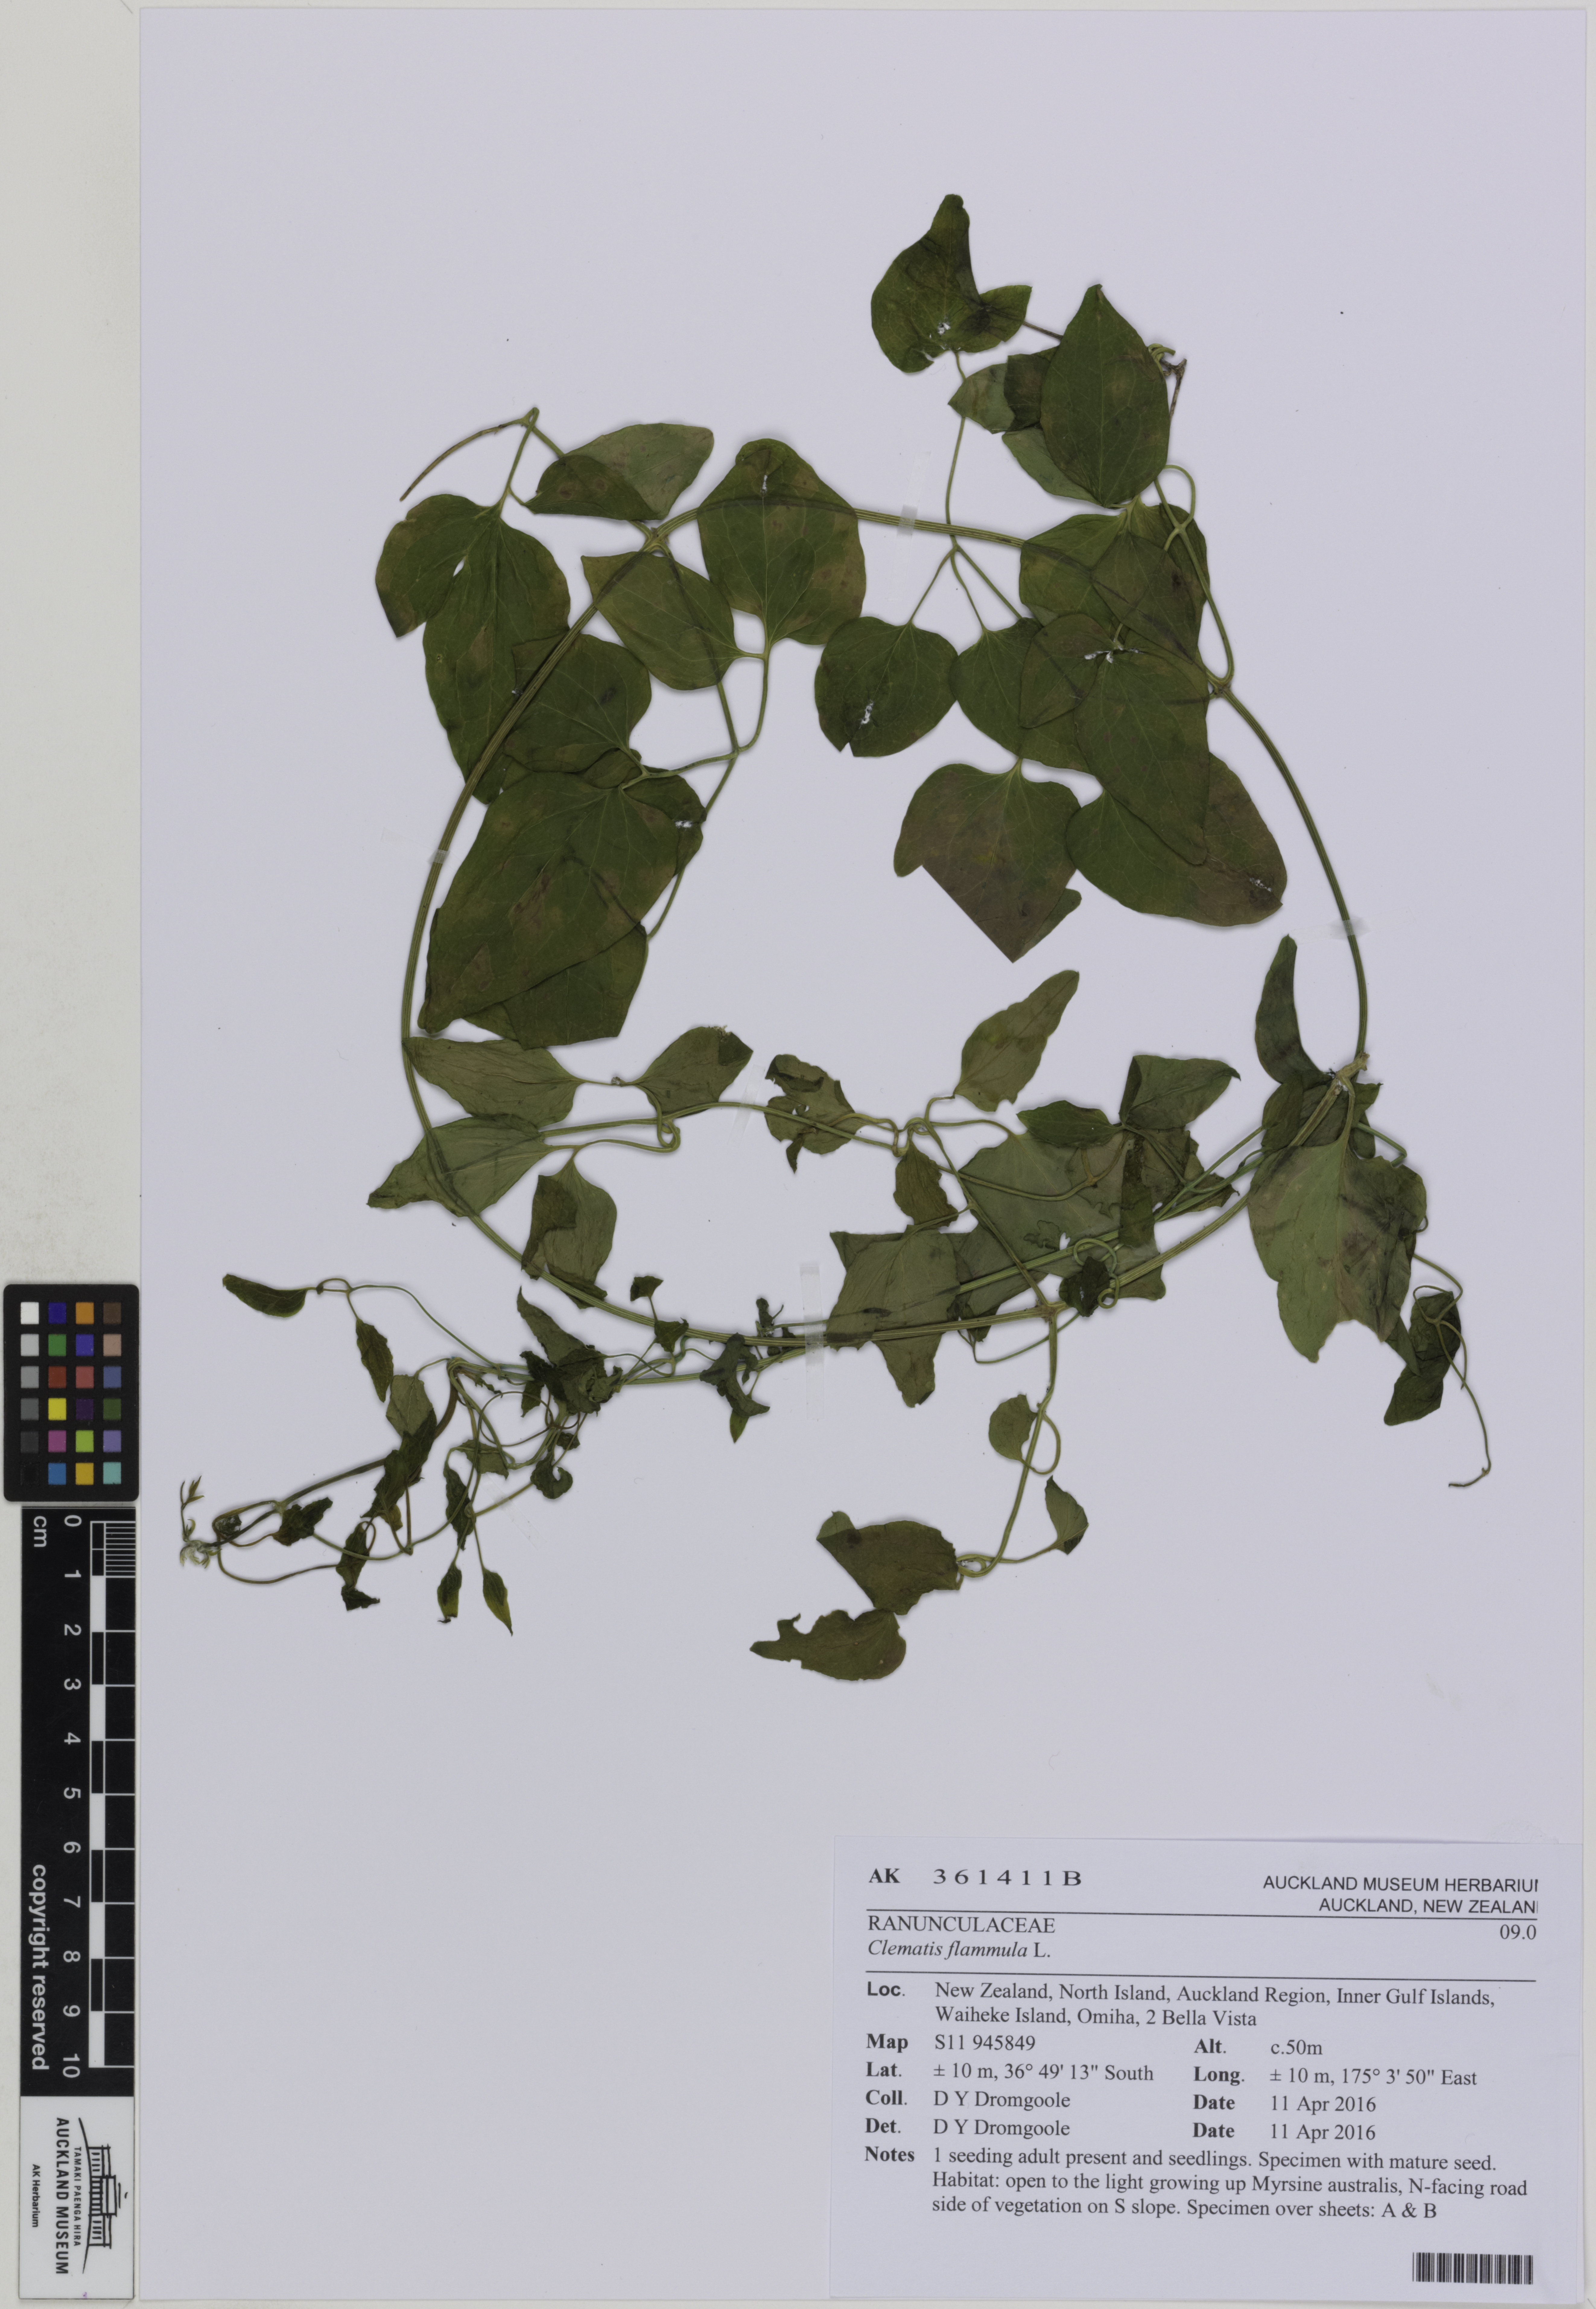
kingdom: Plantae
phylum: Tracheophyta
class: Magnoliopsida
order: Ranunculales
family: Ranunculaceae
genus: Clematis
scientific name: Clematis flammula
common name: Virgin's-bower
